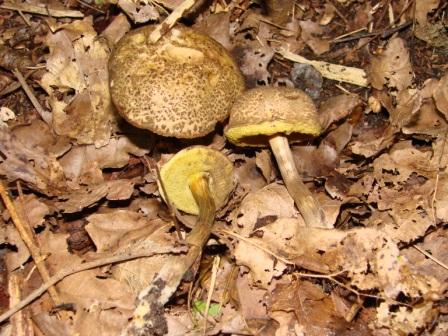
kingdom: Fungi
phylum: Basidiomycota
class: Agaricomycetes
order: Boletales
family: Boletaceae
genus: Xerocomellus
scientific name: Xerocomellus porosporus
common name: hvidsprukken rørhat
